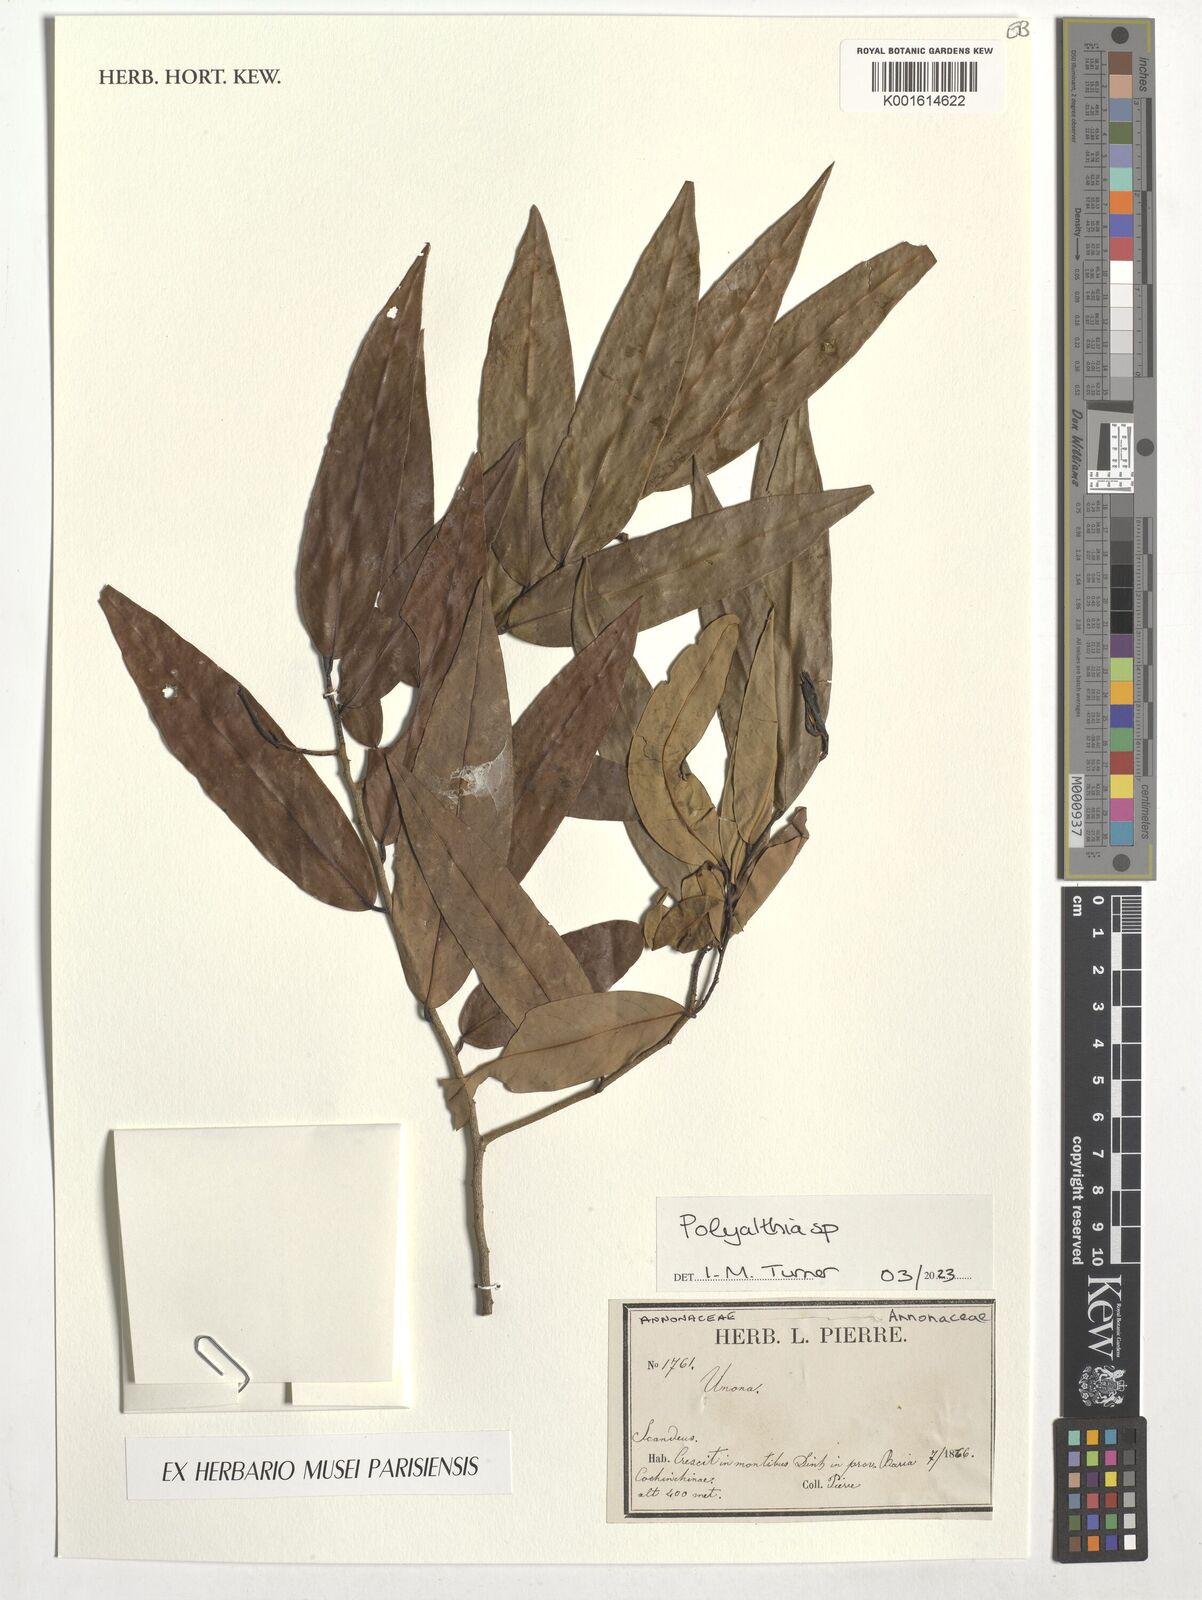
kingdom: Plantae
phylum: Tracheophyta
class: Magnoliopsida
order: Magnoliales
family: Annonaceae
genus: Polyalthia
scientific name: Polyalthia
